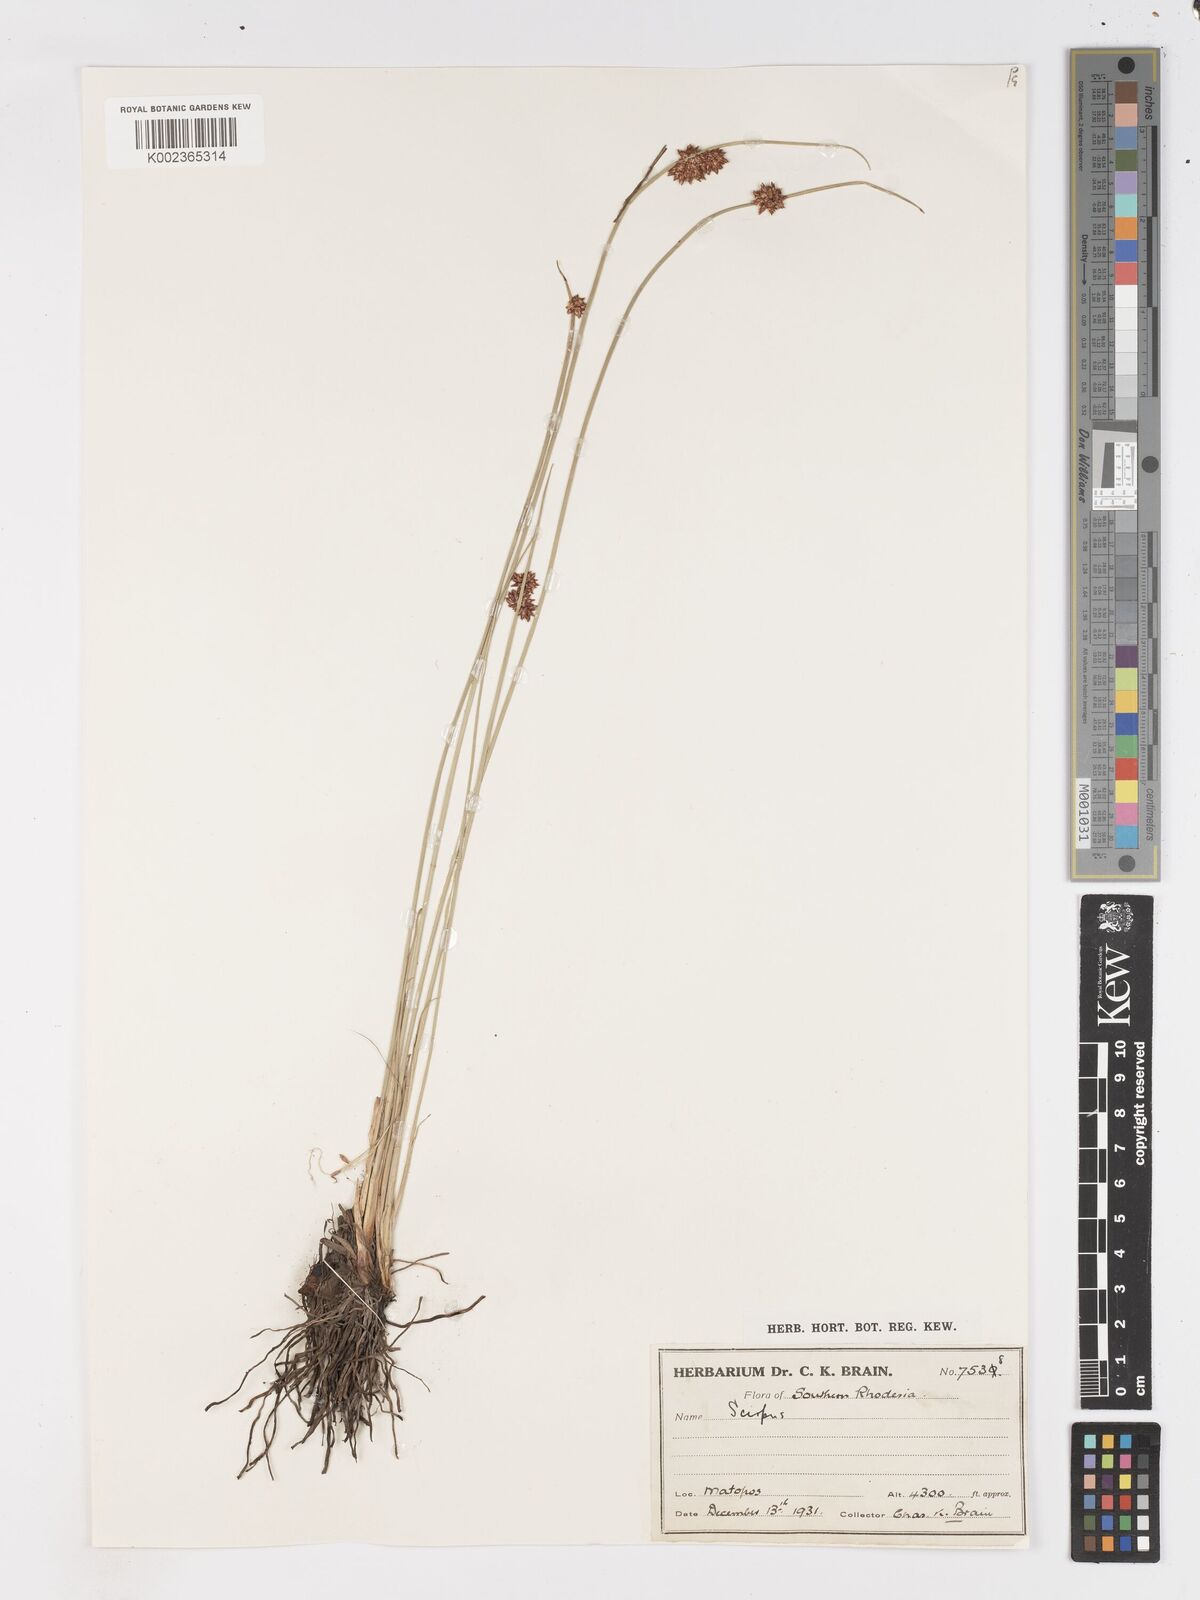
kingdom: Plantae
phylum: Tracheophyta
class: Liliopsida
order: Poales
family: Cyperaceae
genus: Schoenoplectus
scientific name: Schoenoplectus
